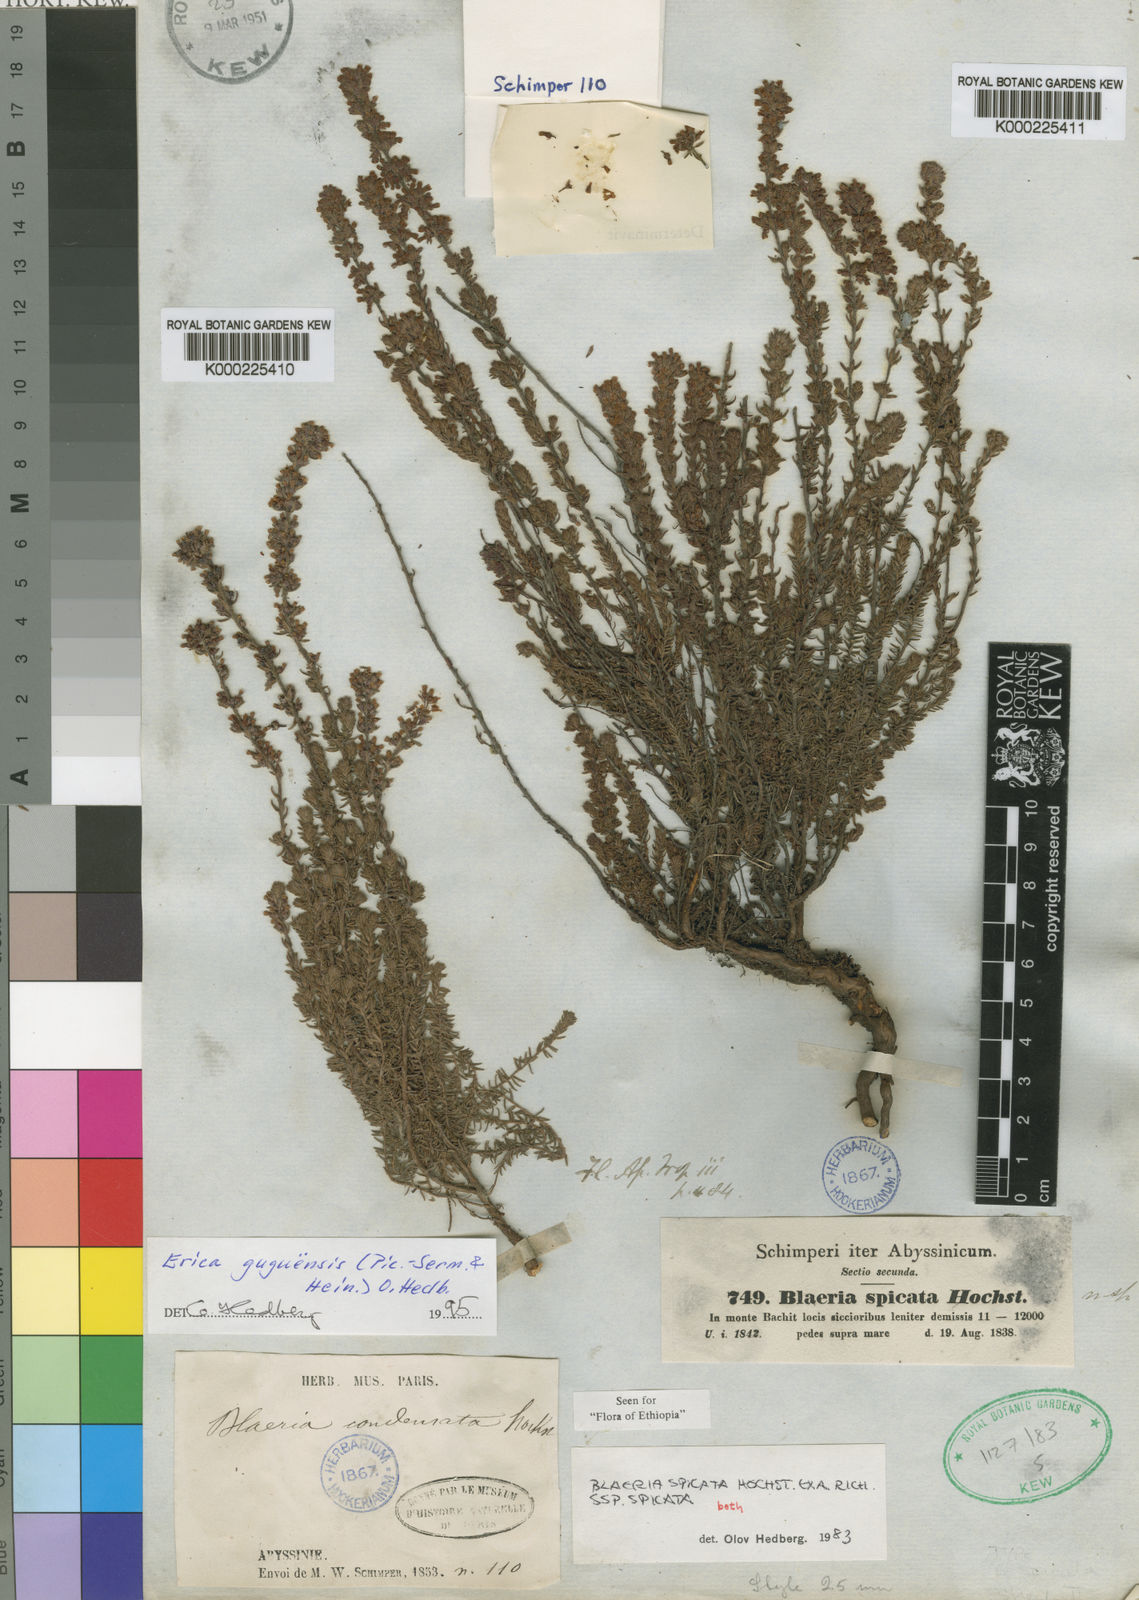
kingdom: Plantae
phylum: Tracheophyta
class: Magnoliopsida
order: Ericales
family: Ericaceae
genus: Erica
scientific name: Erica silvatica
